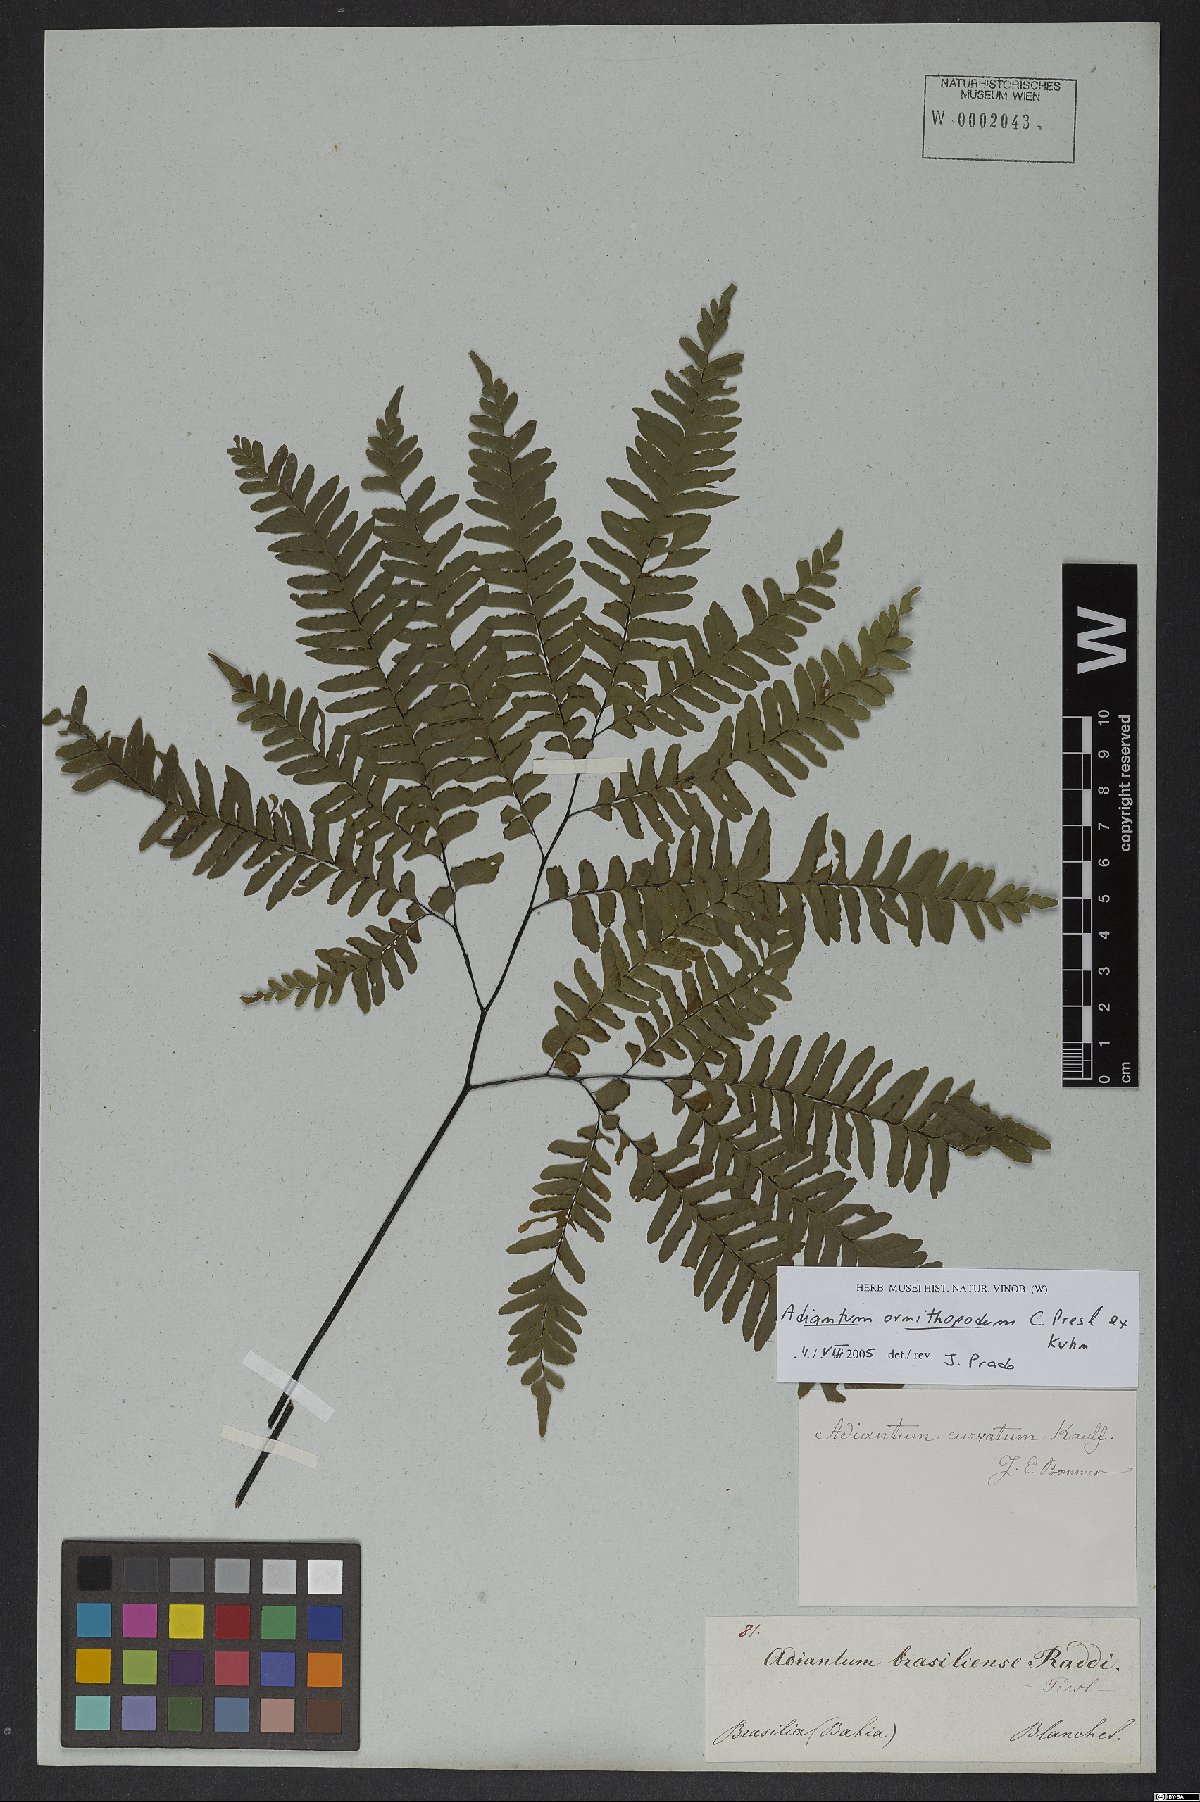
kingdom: Plantae
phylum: Tracheophyta
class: Polypodiopsida
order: Polypodiales
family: Pteridaceae
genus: Adiantum
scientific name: Adiantum ornithopodum
